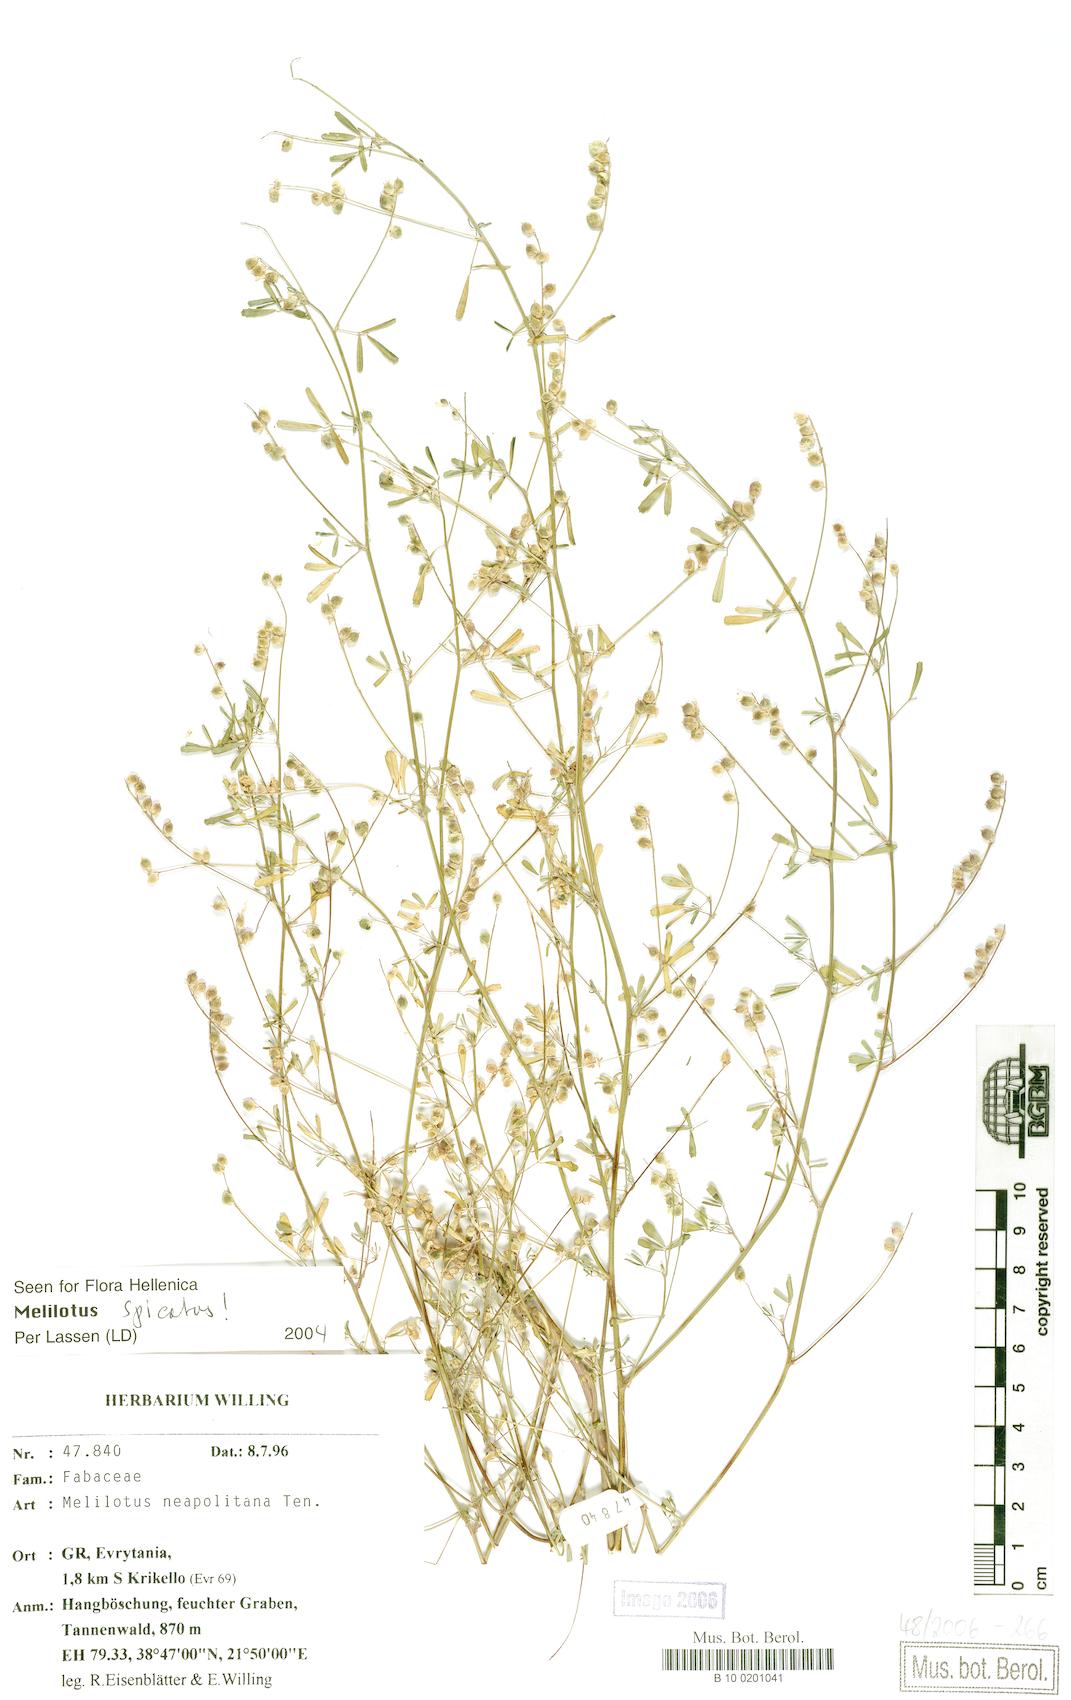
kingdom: Plantae
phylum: Tracheophyta
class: Magnoliopsida
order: Fabales
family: Fabaceae
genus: Melilotus
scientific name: Melilotus neapolitanus
